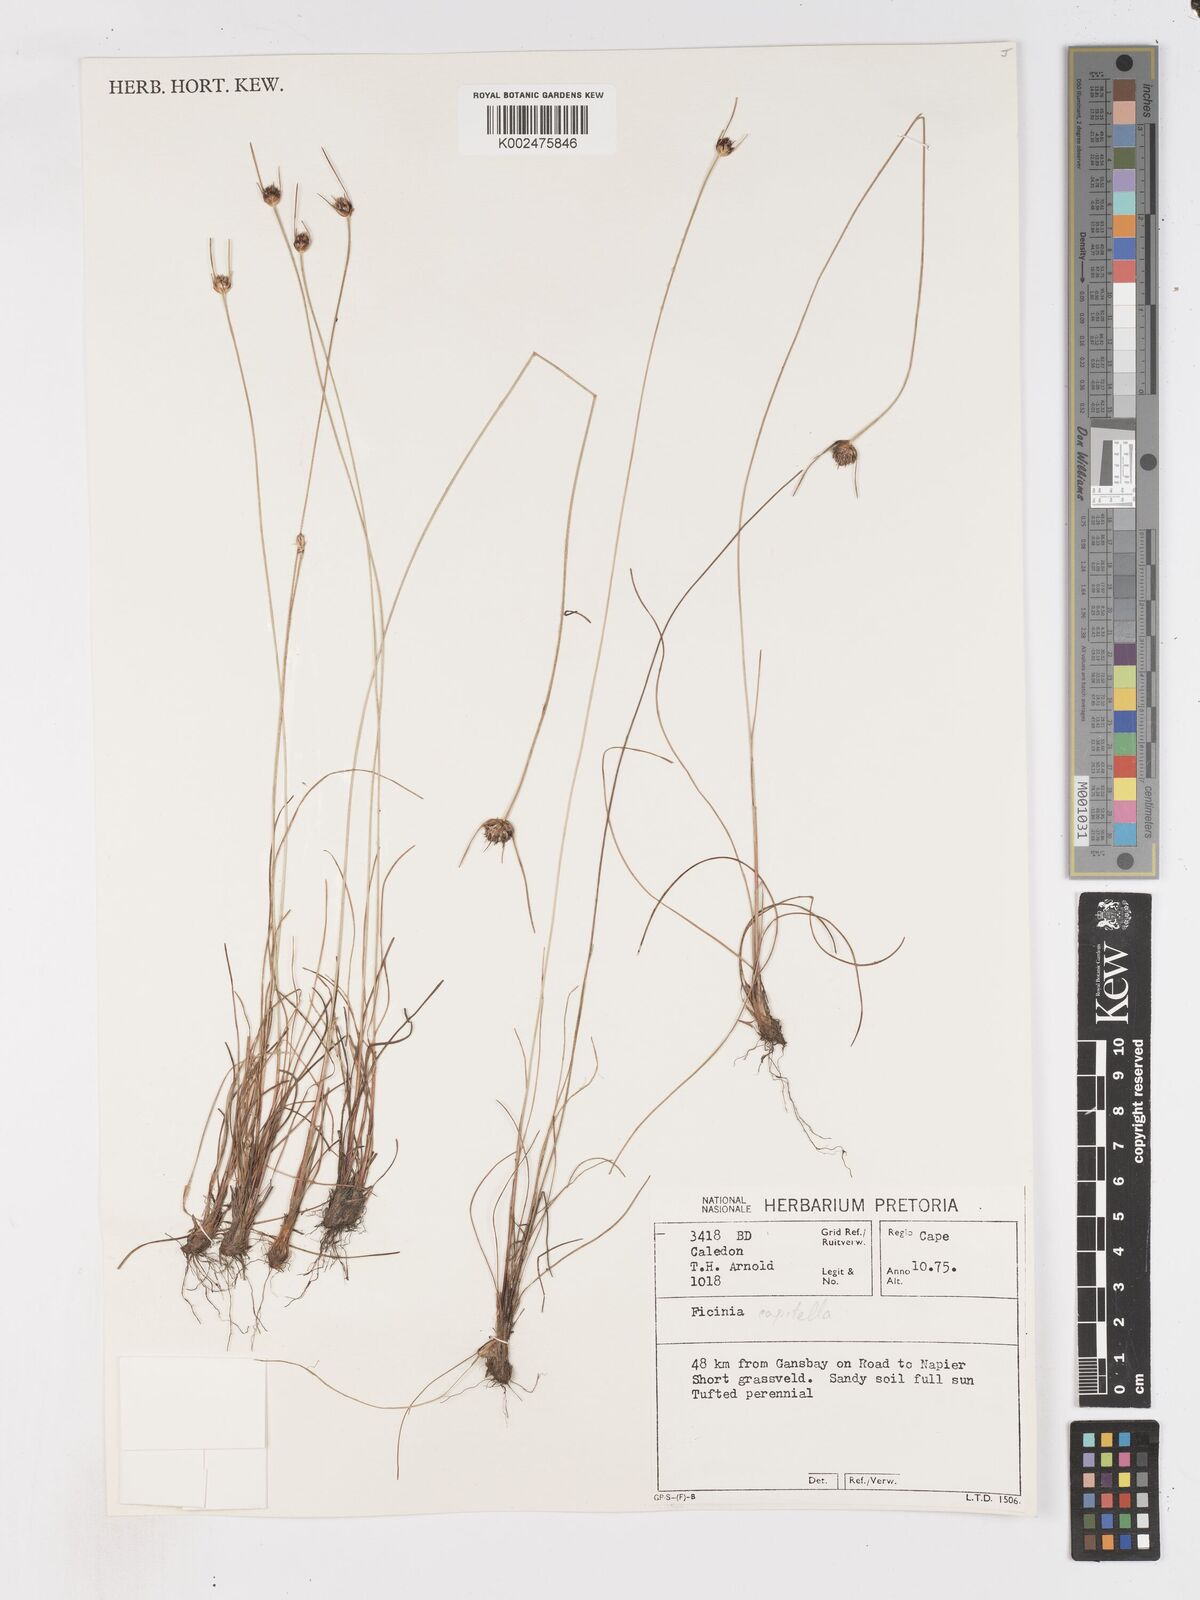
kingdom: Plantae
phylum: Tracheophyta
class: Liliopsida
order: Poales
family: Cyperaceae
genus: Ficinia
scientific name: Ficinia capitella
